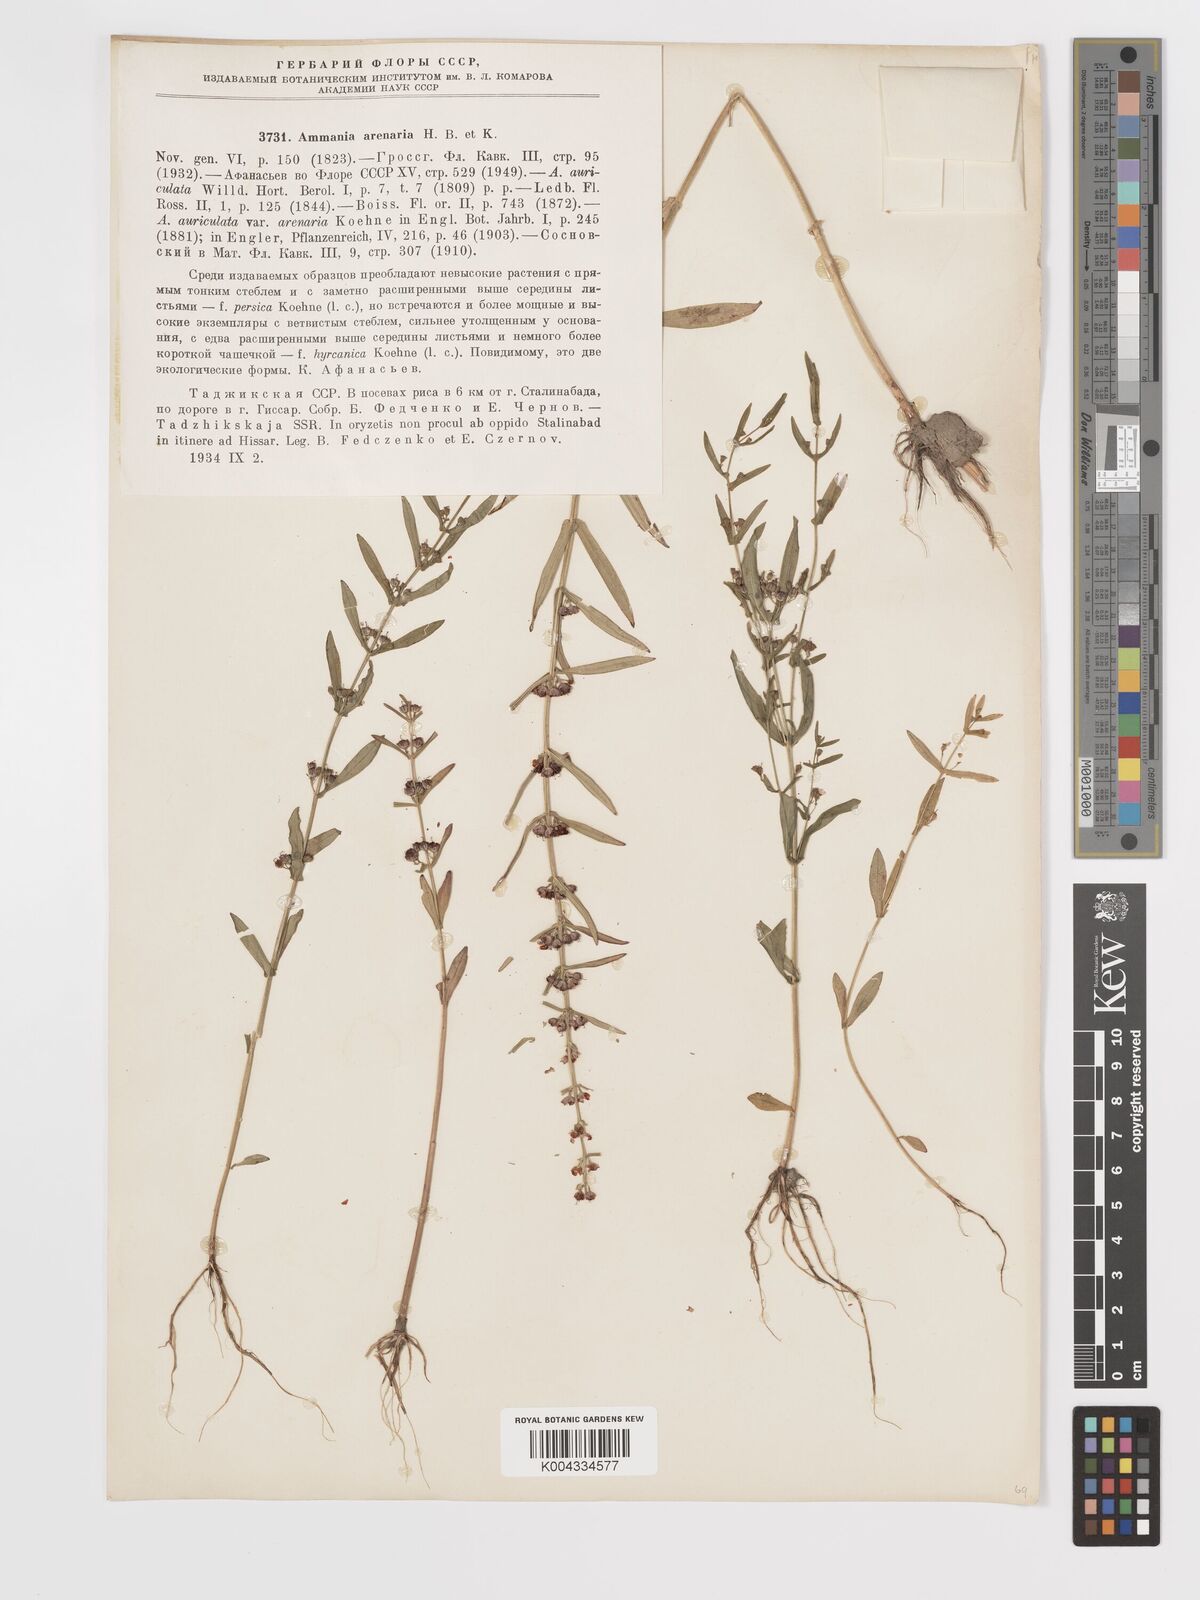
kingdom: Plantae
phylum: Tracheophyta
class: Magnoliopsida
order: Myrtales
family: Lythraceae
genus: Ammannia
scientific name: Ammannia auriculata
